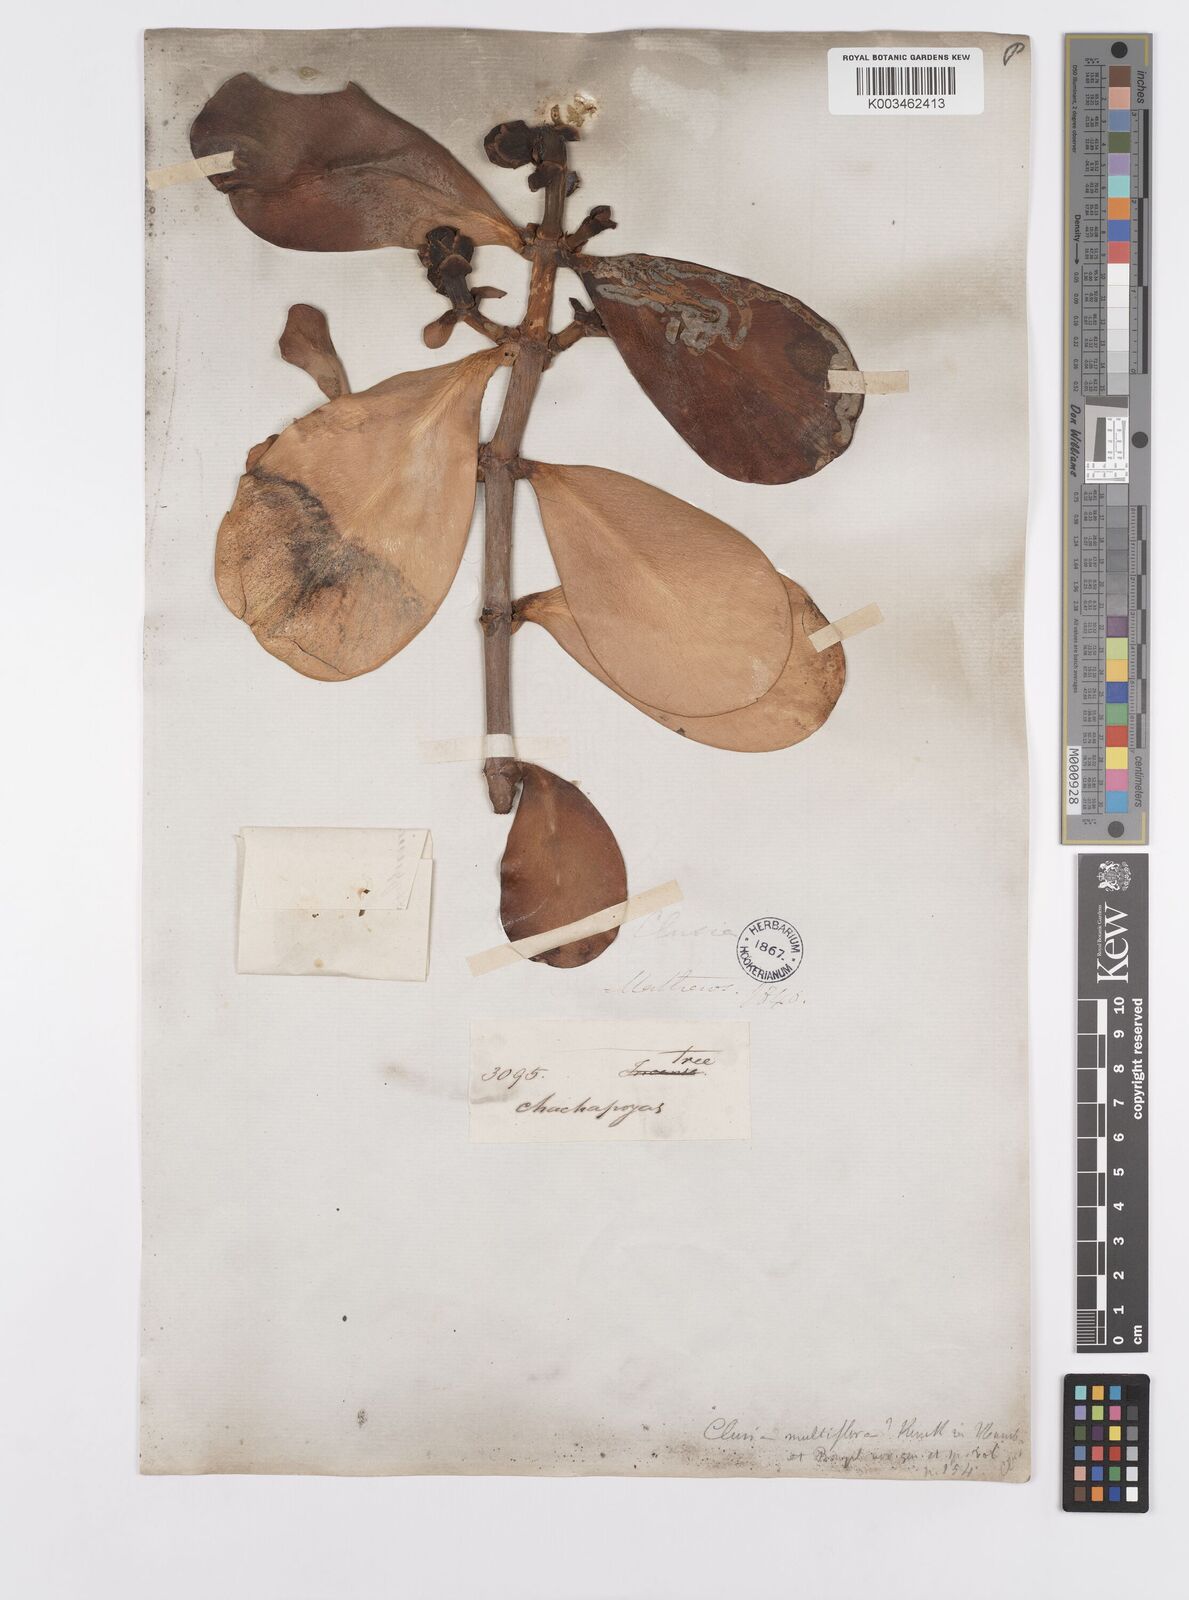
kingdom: Plantae
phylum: Tracheophyta
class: Magnoliopsida
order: Malpighiales
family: Clusiaceae
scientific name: Clusiaceae
